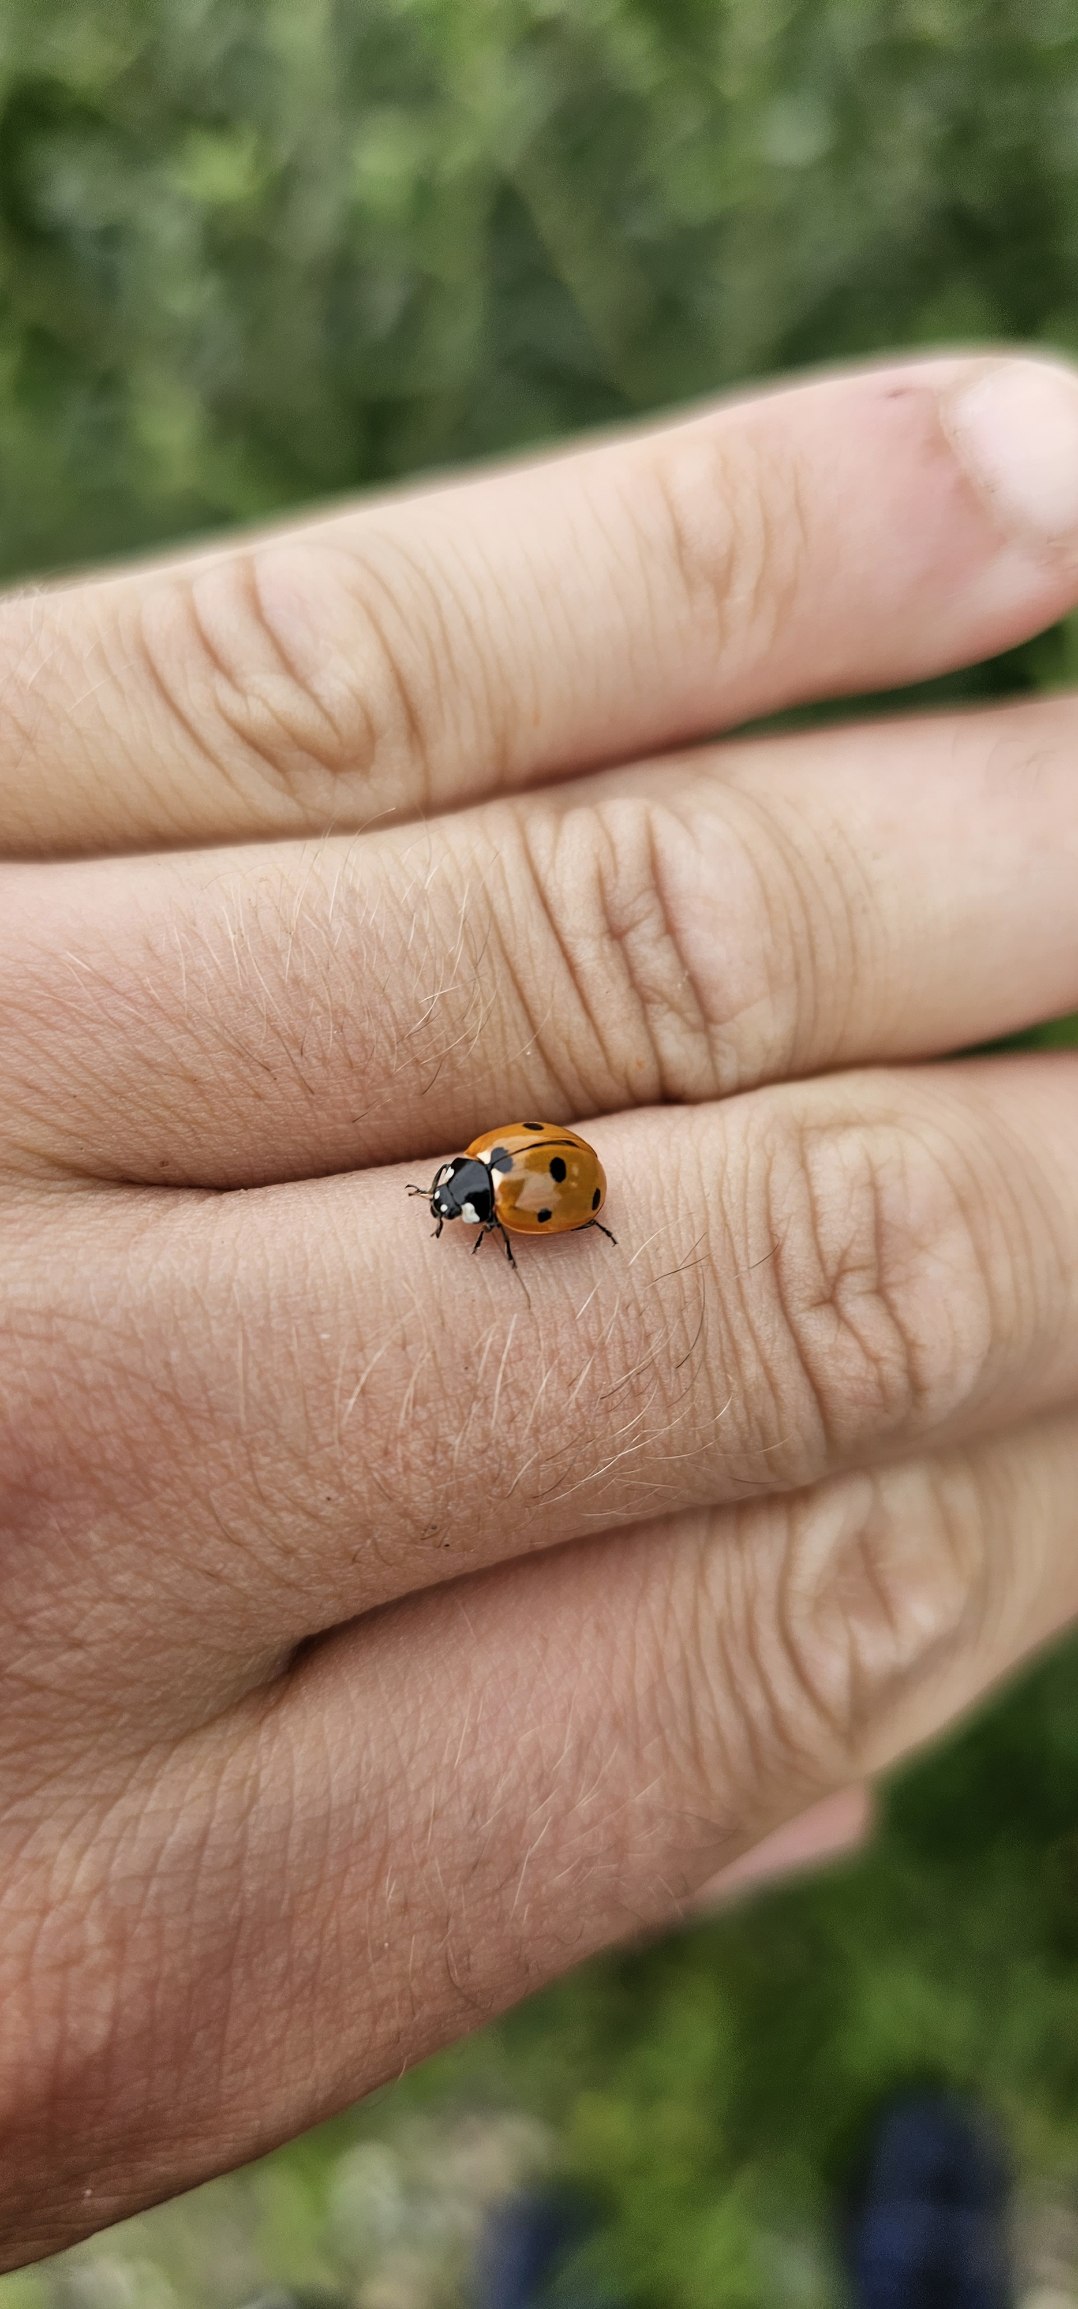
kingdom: Animalia
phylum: Arthropoda
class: Insecta
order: Coleoptera
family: Coccinellidae
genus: Coccinella
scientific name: Coccinella septempunctata
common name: Syvplettet mariehøne
